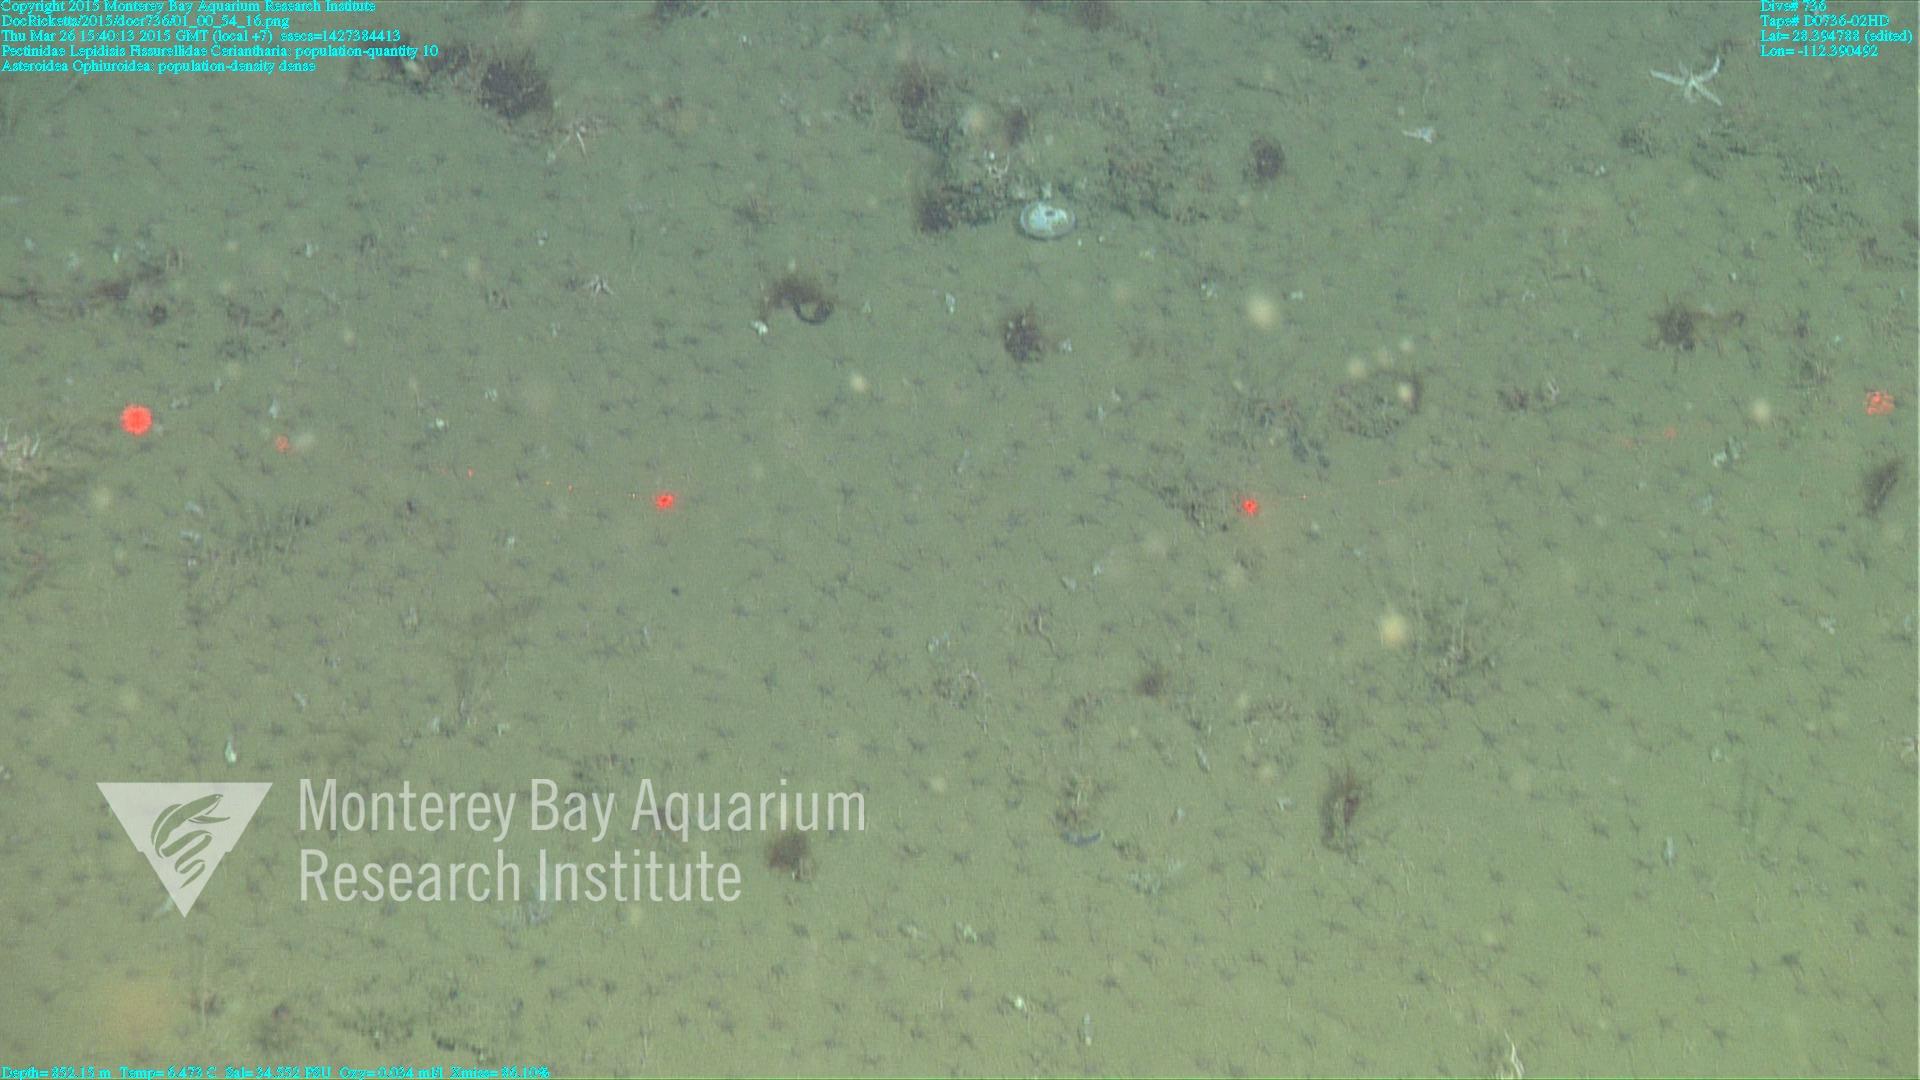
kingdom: Animalia
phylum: Cnidaria
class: Anthozoa
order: Scleralcyonacea
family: Keratoisididae
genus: Lepidisis
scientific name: Lepidisis
